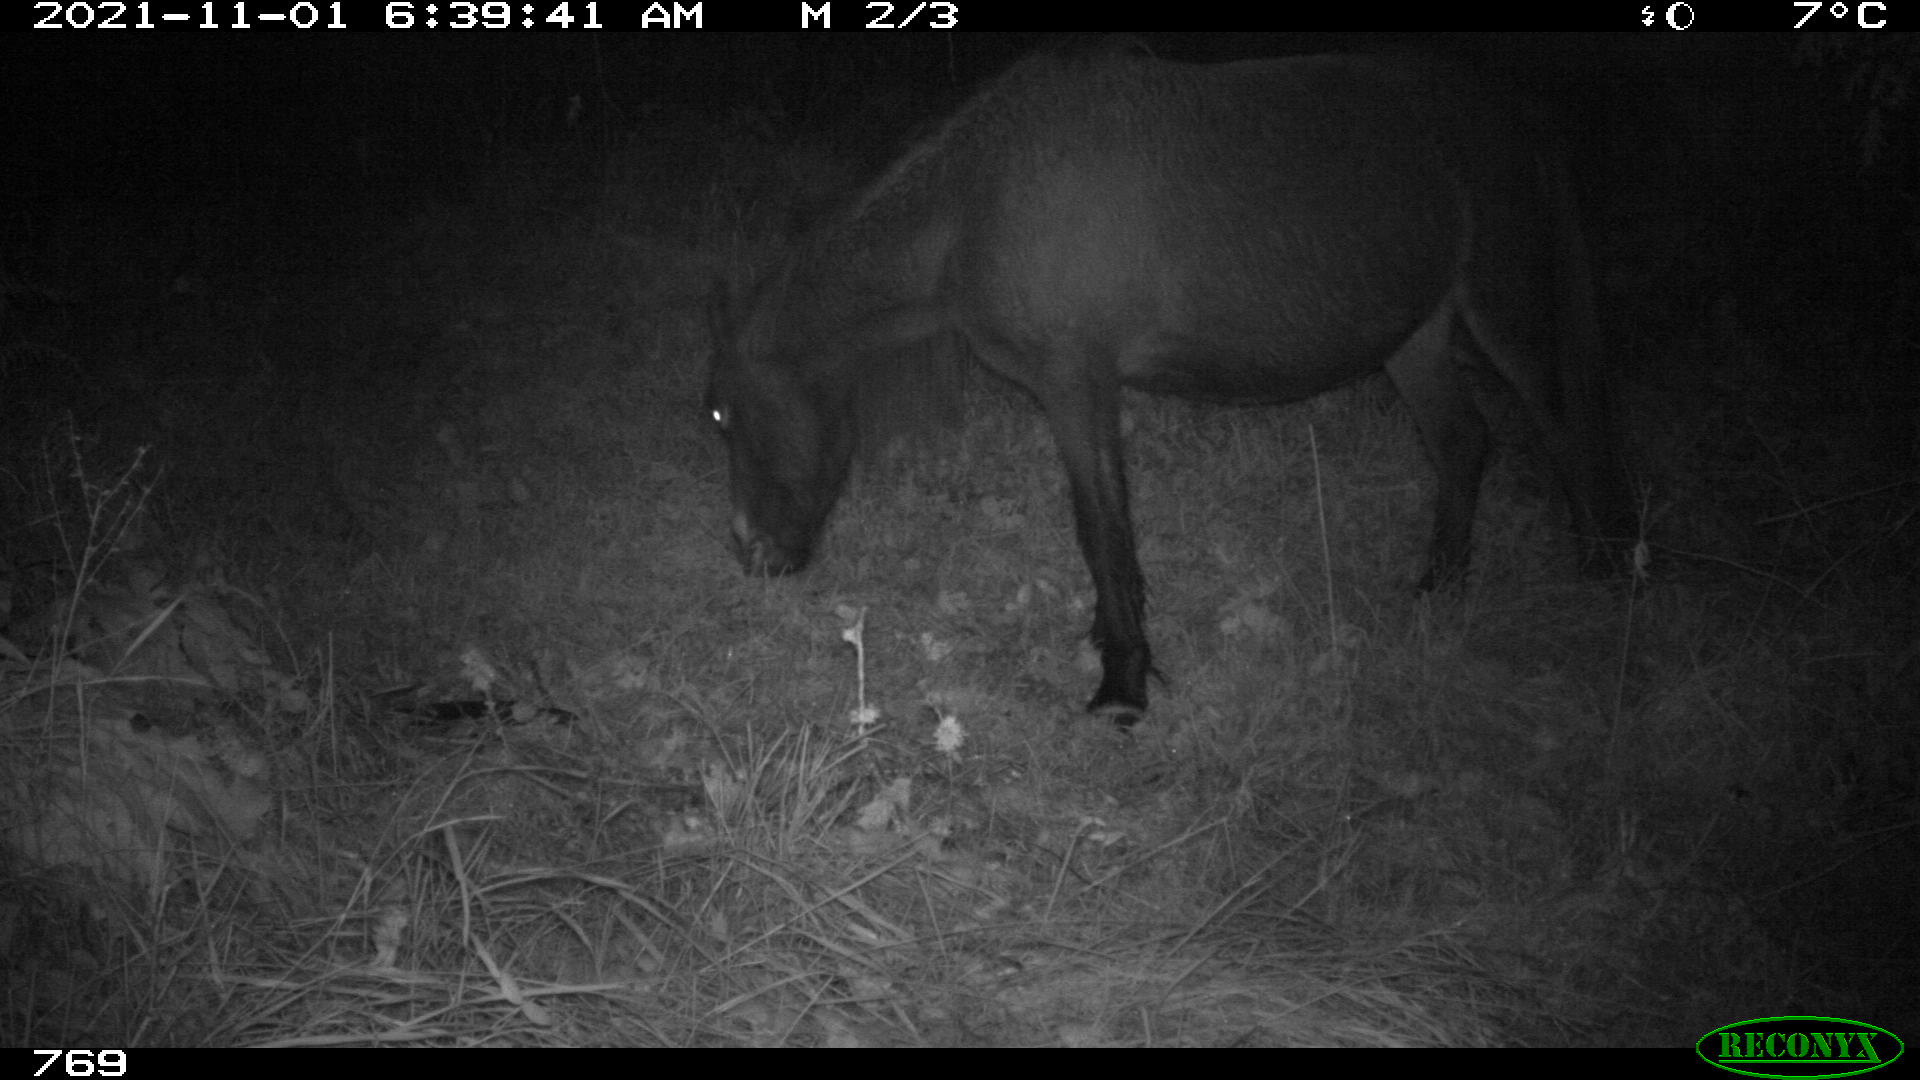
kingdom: Animalia
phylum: Chordata
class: Mammalia
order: Perissodactyla
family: Equidae
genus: Equus
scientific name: Equus caballus
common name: Horse
